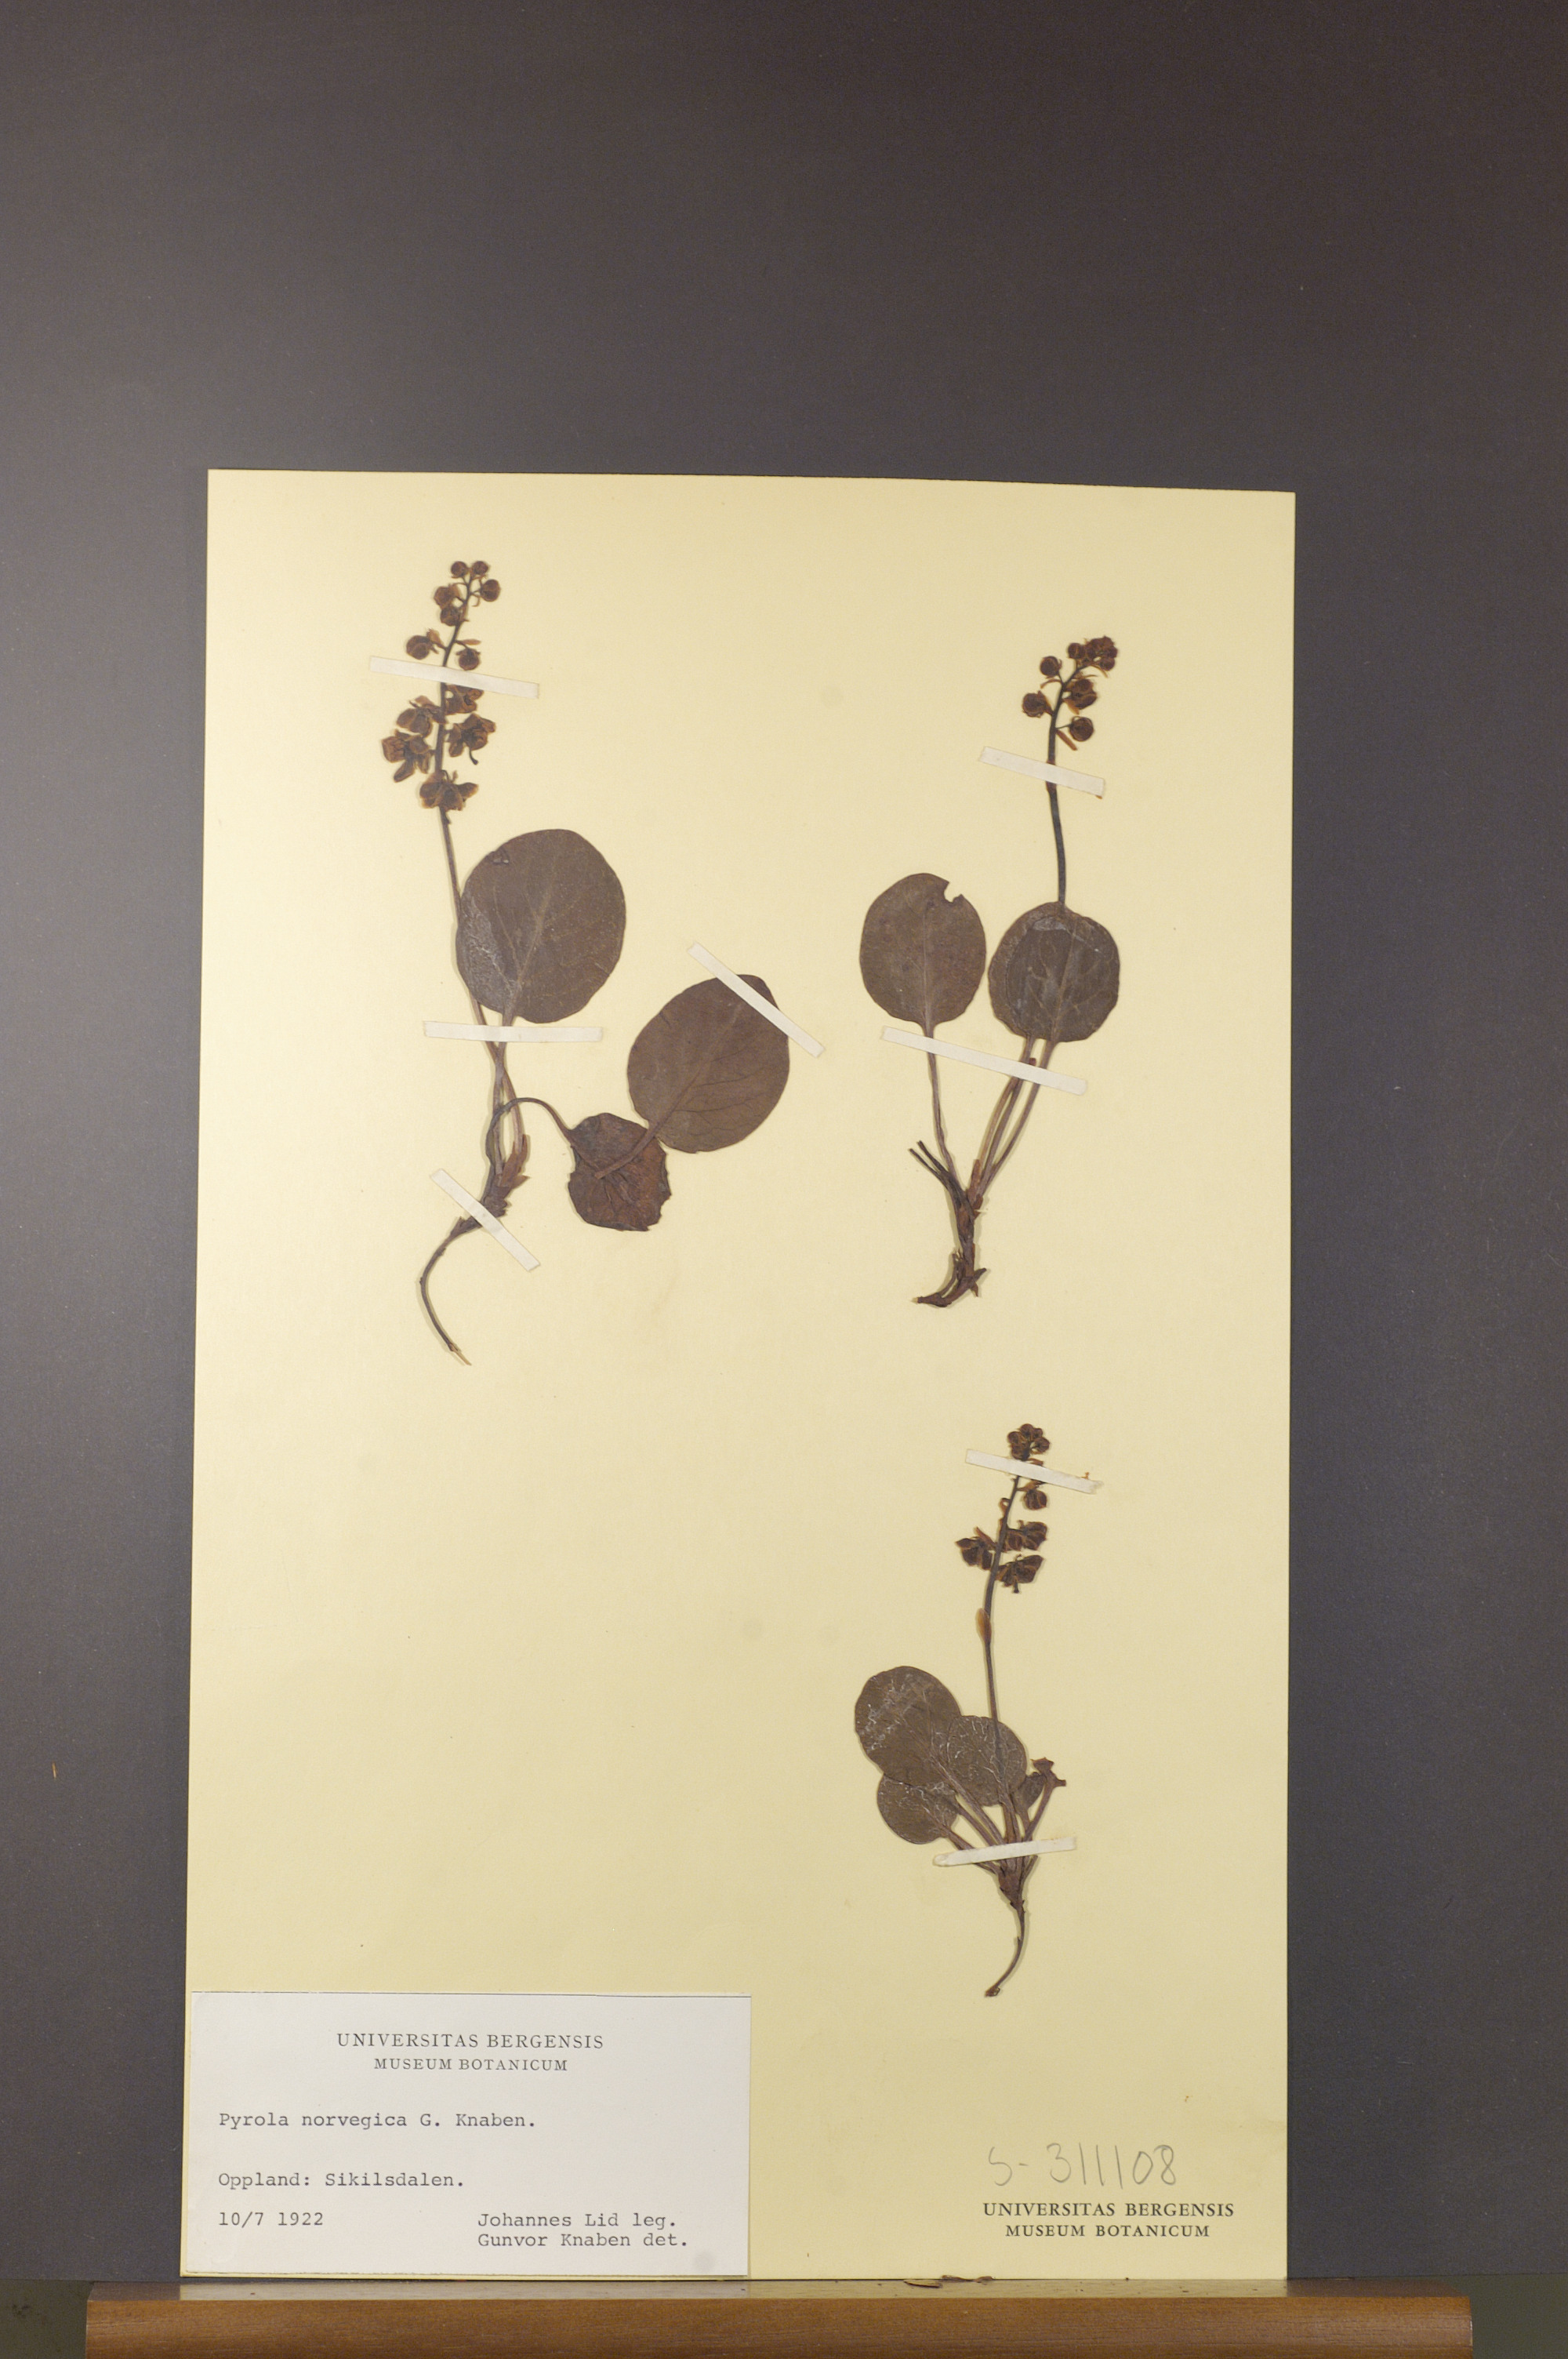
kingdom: Plantae
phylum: Tracheophyta
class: Magnoliopsida
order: Ericales
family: Ericaceae
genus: Pyrola
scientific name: Pyrola rotundifolia
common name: Round-leaved wintergreen
